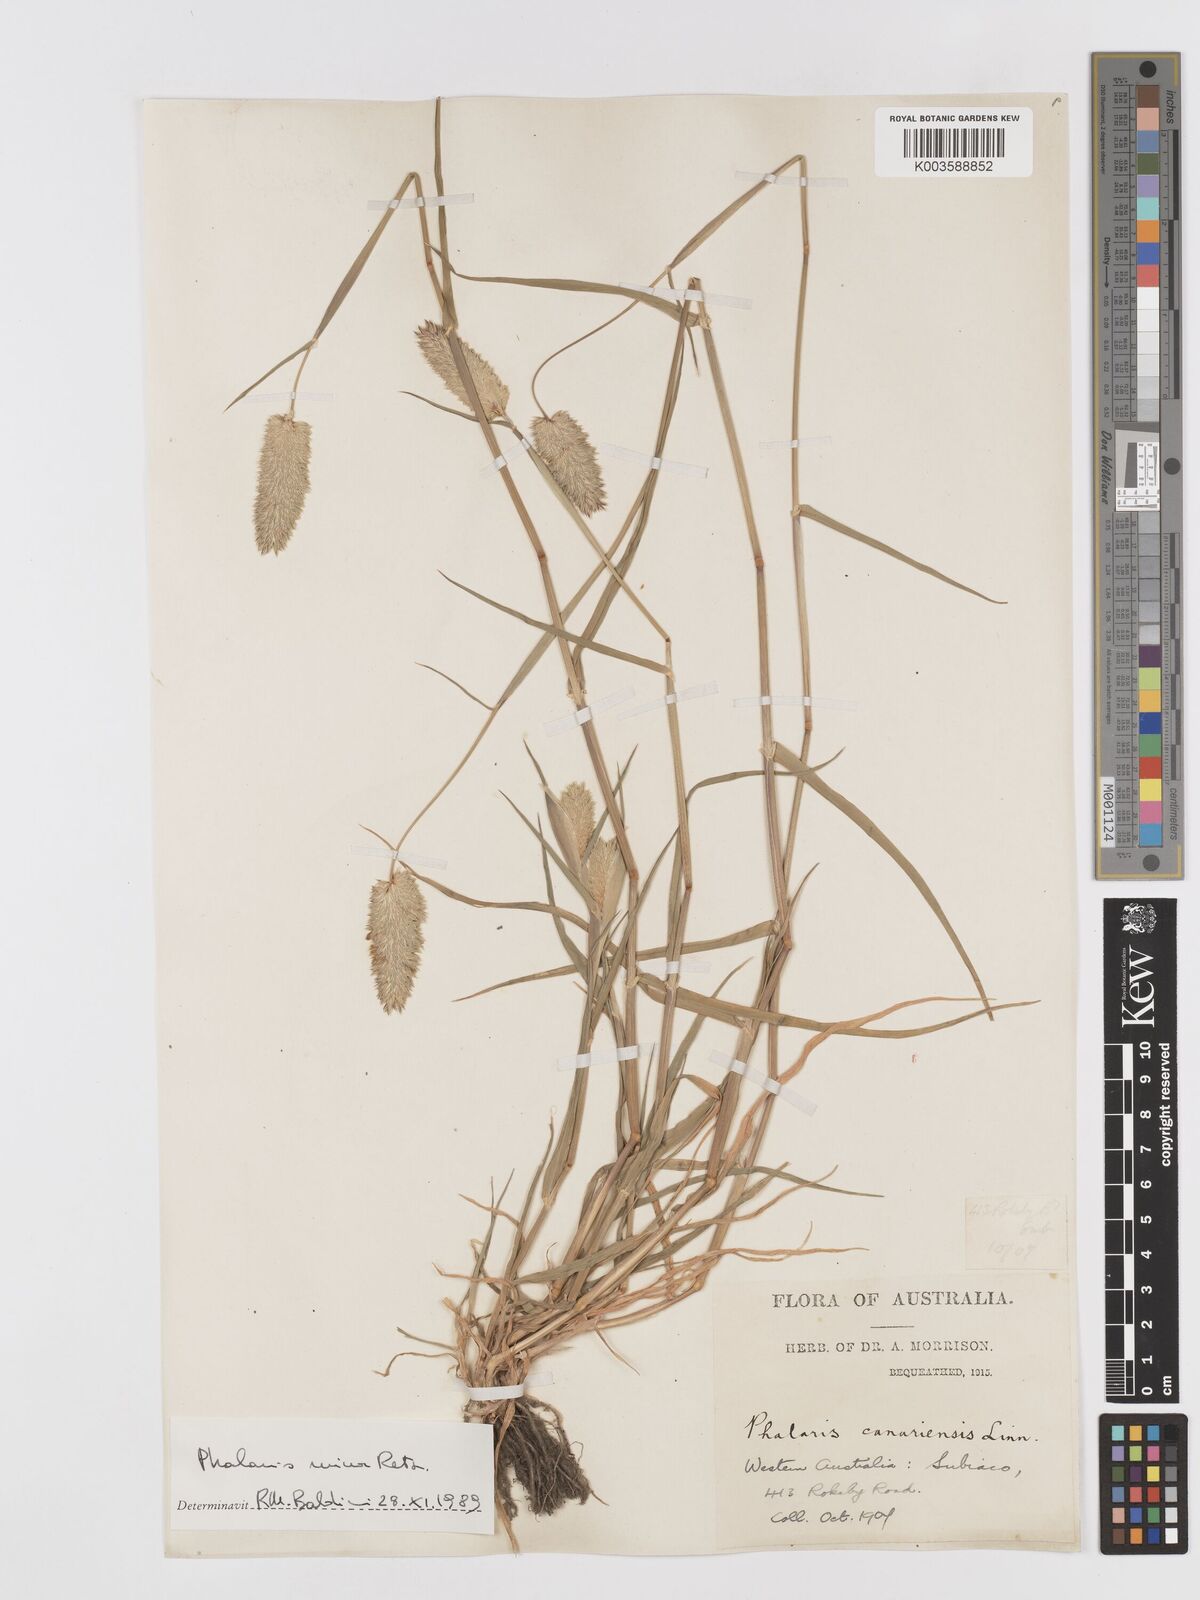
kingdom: Plantae
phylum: Tracheophyta
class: Liliopsida
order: Poales
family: Poaceae
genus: Phalaris
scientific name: Phalaris minor
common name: Littleseed canarygrass
